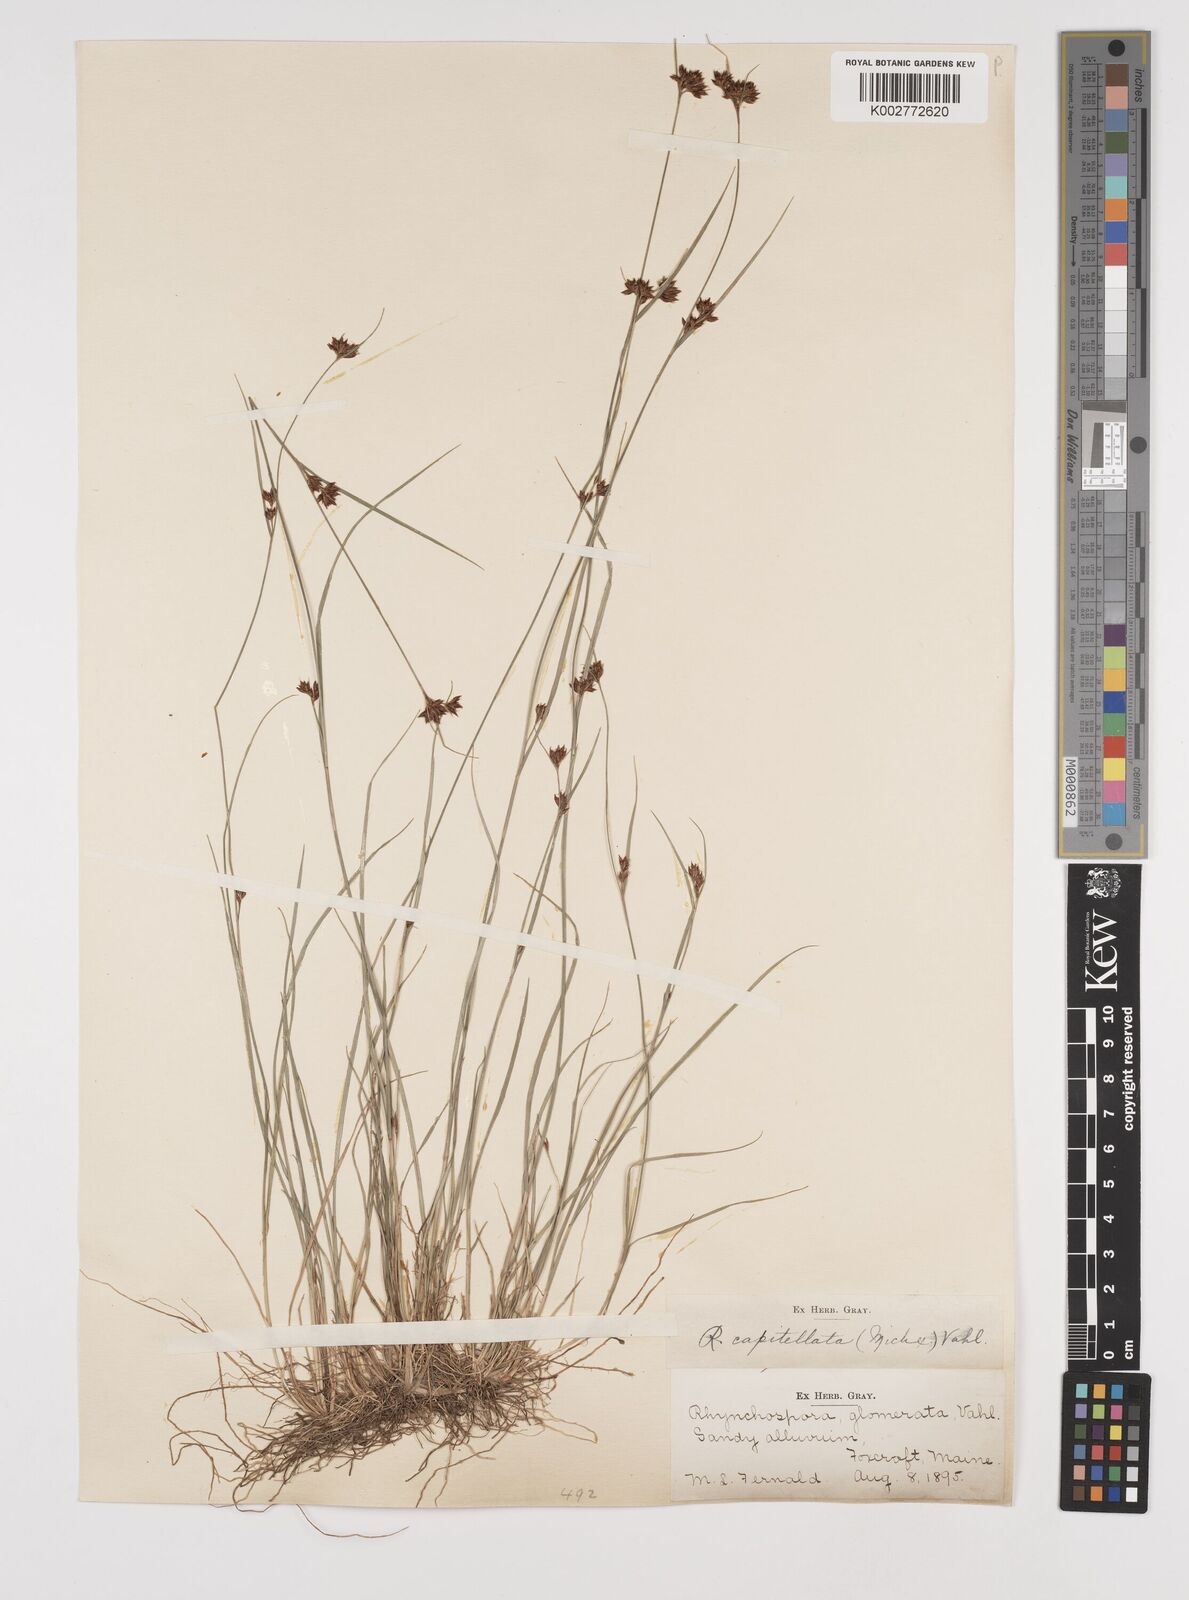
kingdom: Plantae
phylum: Tracheophyta
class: Liliopsida
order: Poales
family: Cyperaceae
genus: Rhynchospora
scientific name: Rhynchospora capitellata
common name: Brownish beaksedge
